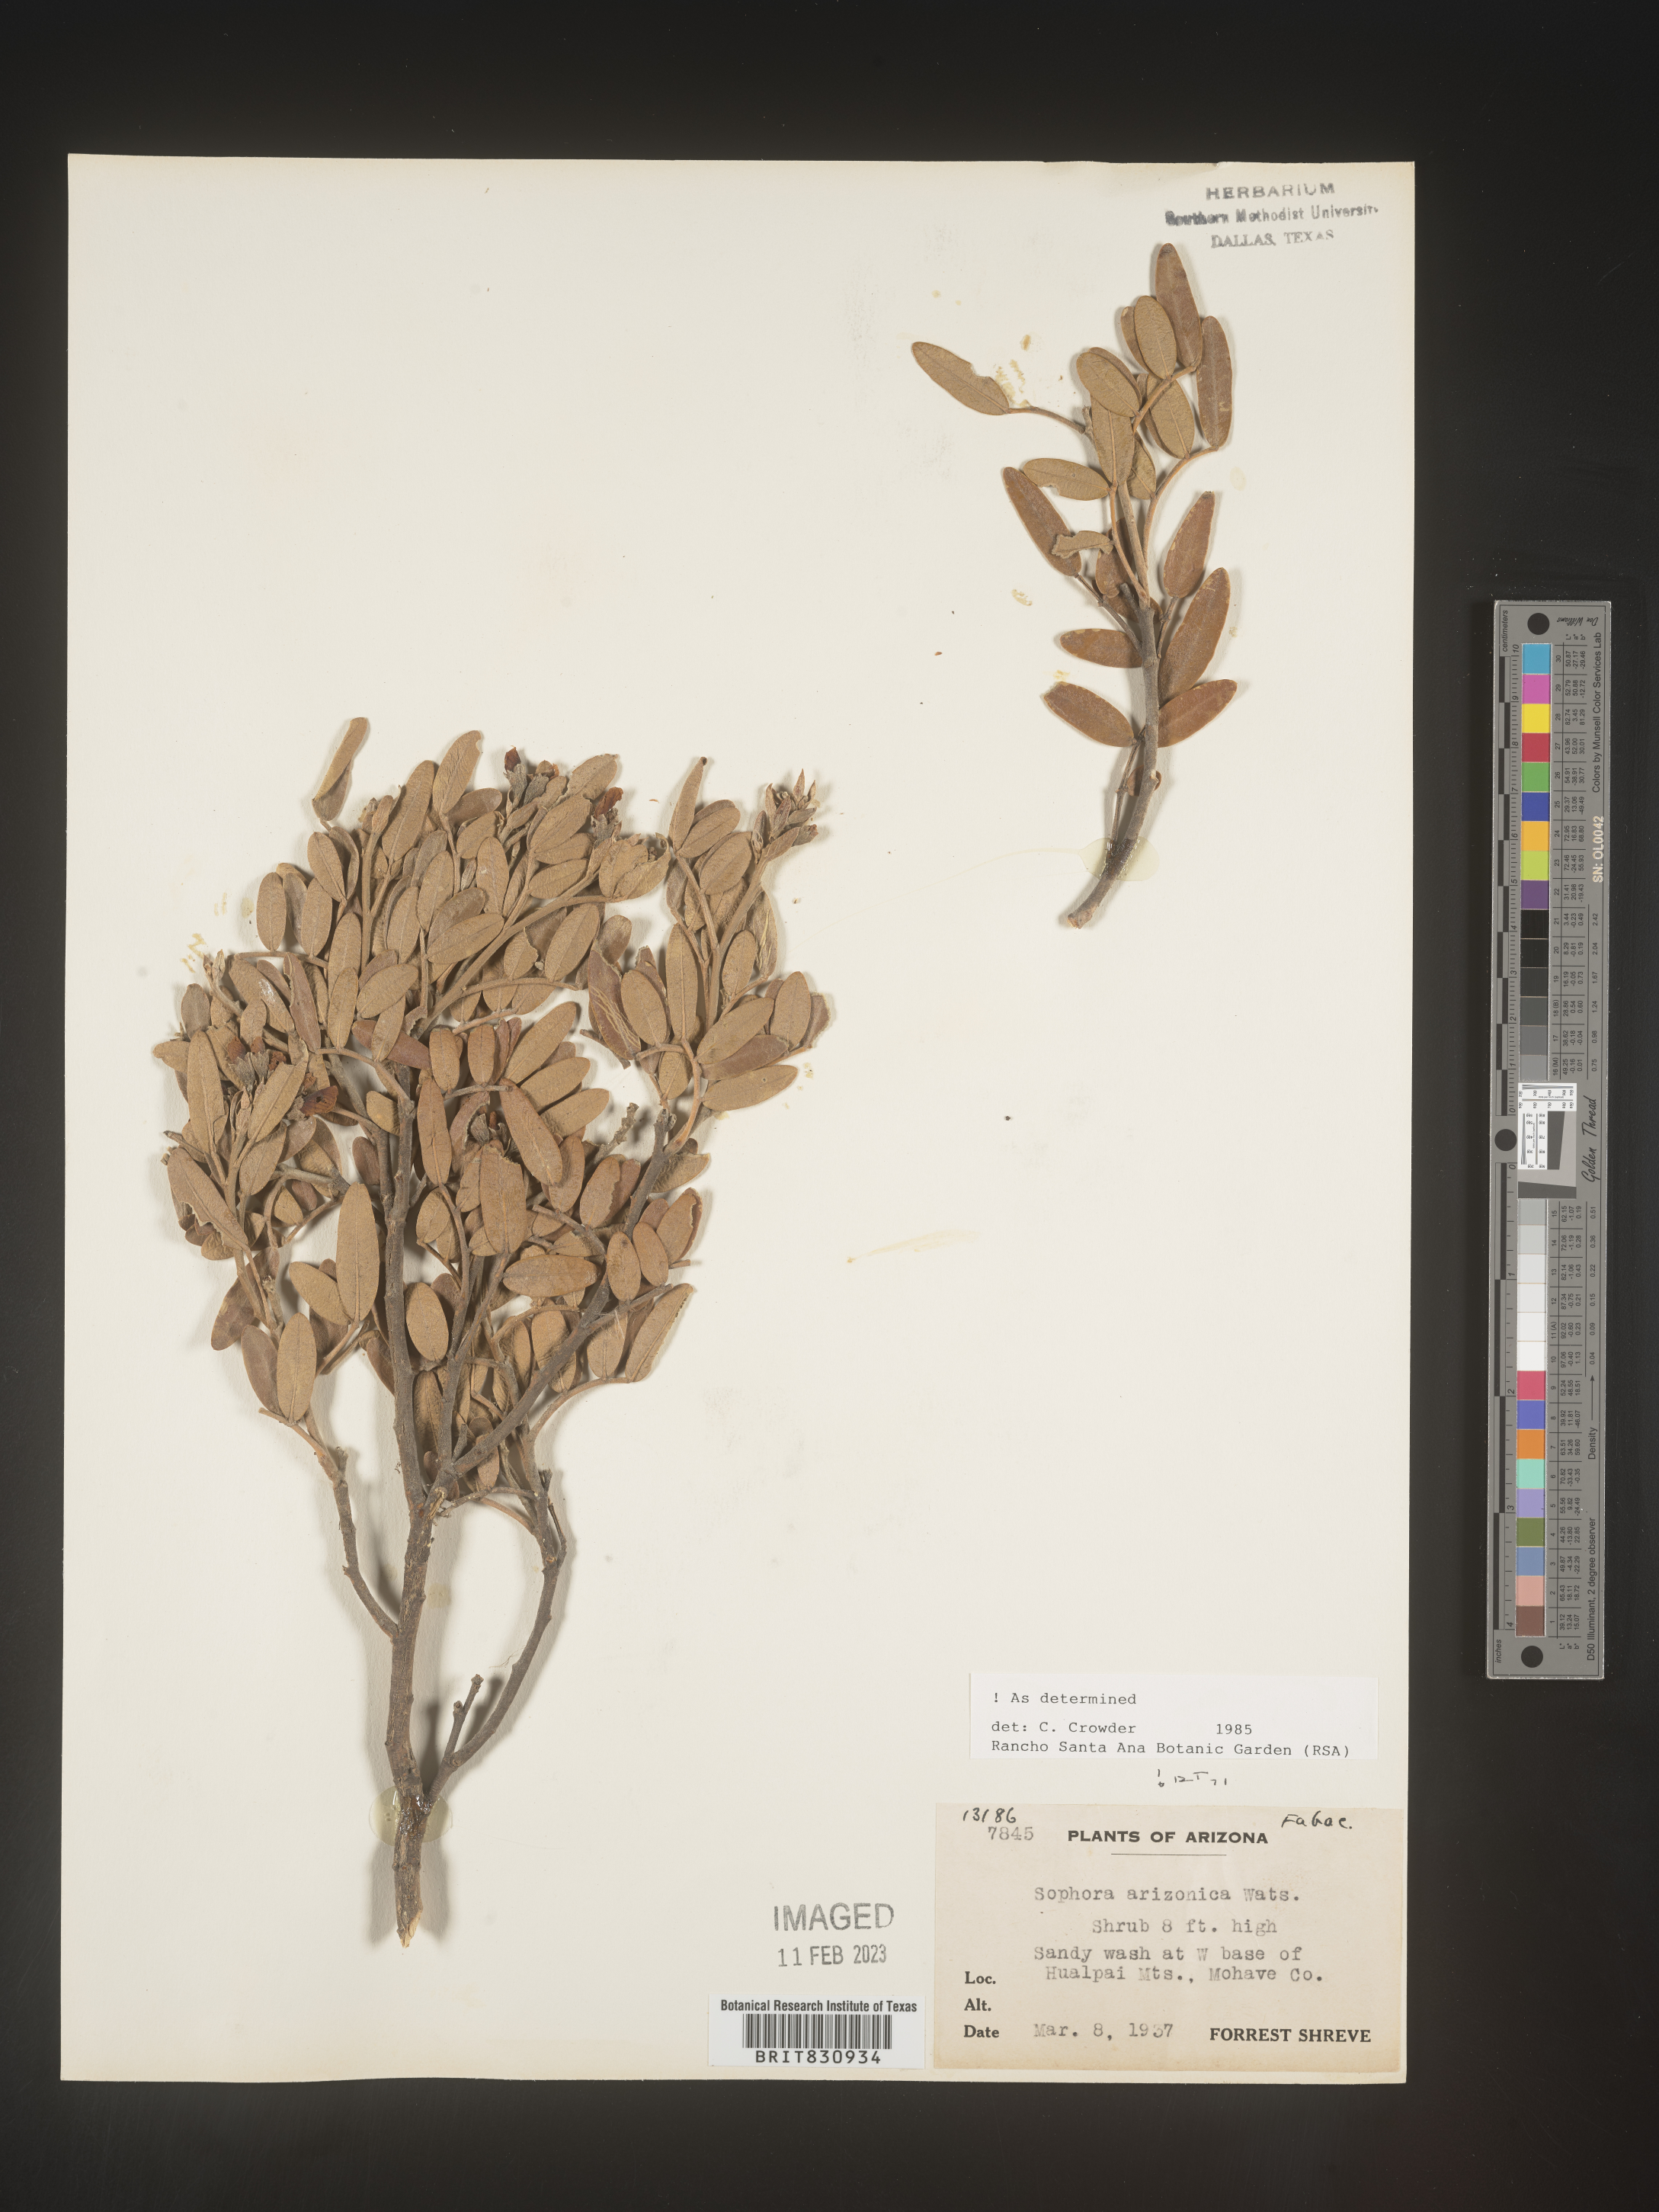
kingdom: Plantae
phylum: Tracheophyta
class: Magnoliopsida
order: Fabales
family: Fabaceae
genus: Dermatophyllum
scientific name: Dermatophyllum arizonicum
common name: Arizona necklace
